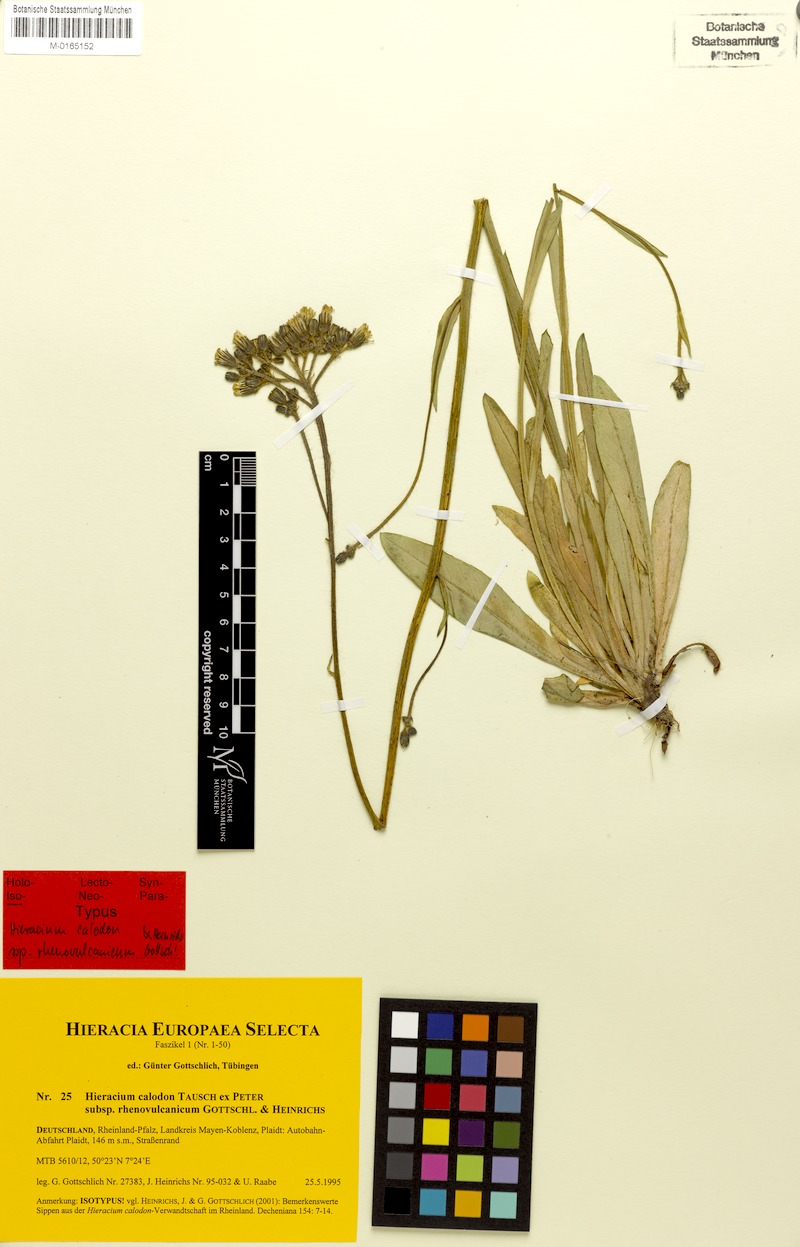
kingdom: Plantae
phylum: Tracheophyta
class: Magnoliopsida
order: Asterales
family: Asteraceae
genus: Pilosella
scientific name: Pilosella auriculoides
